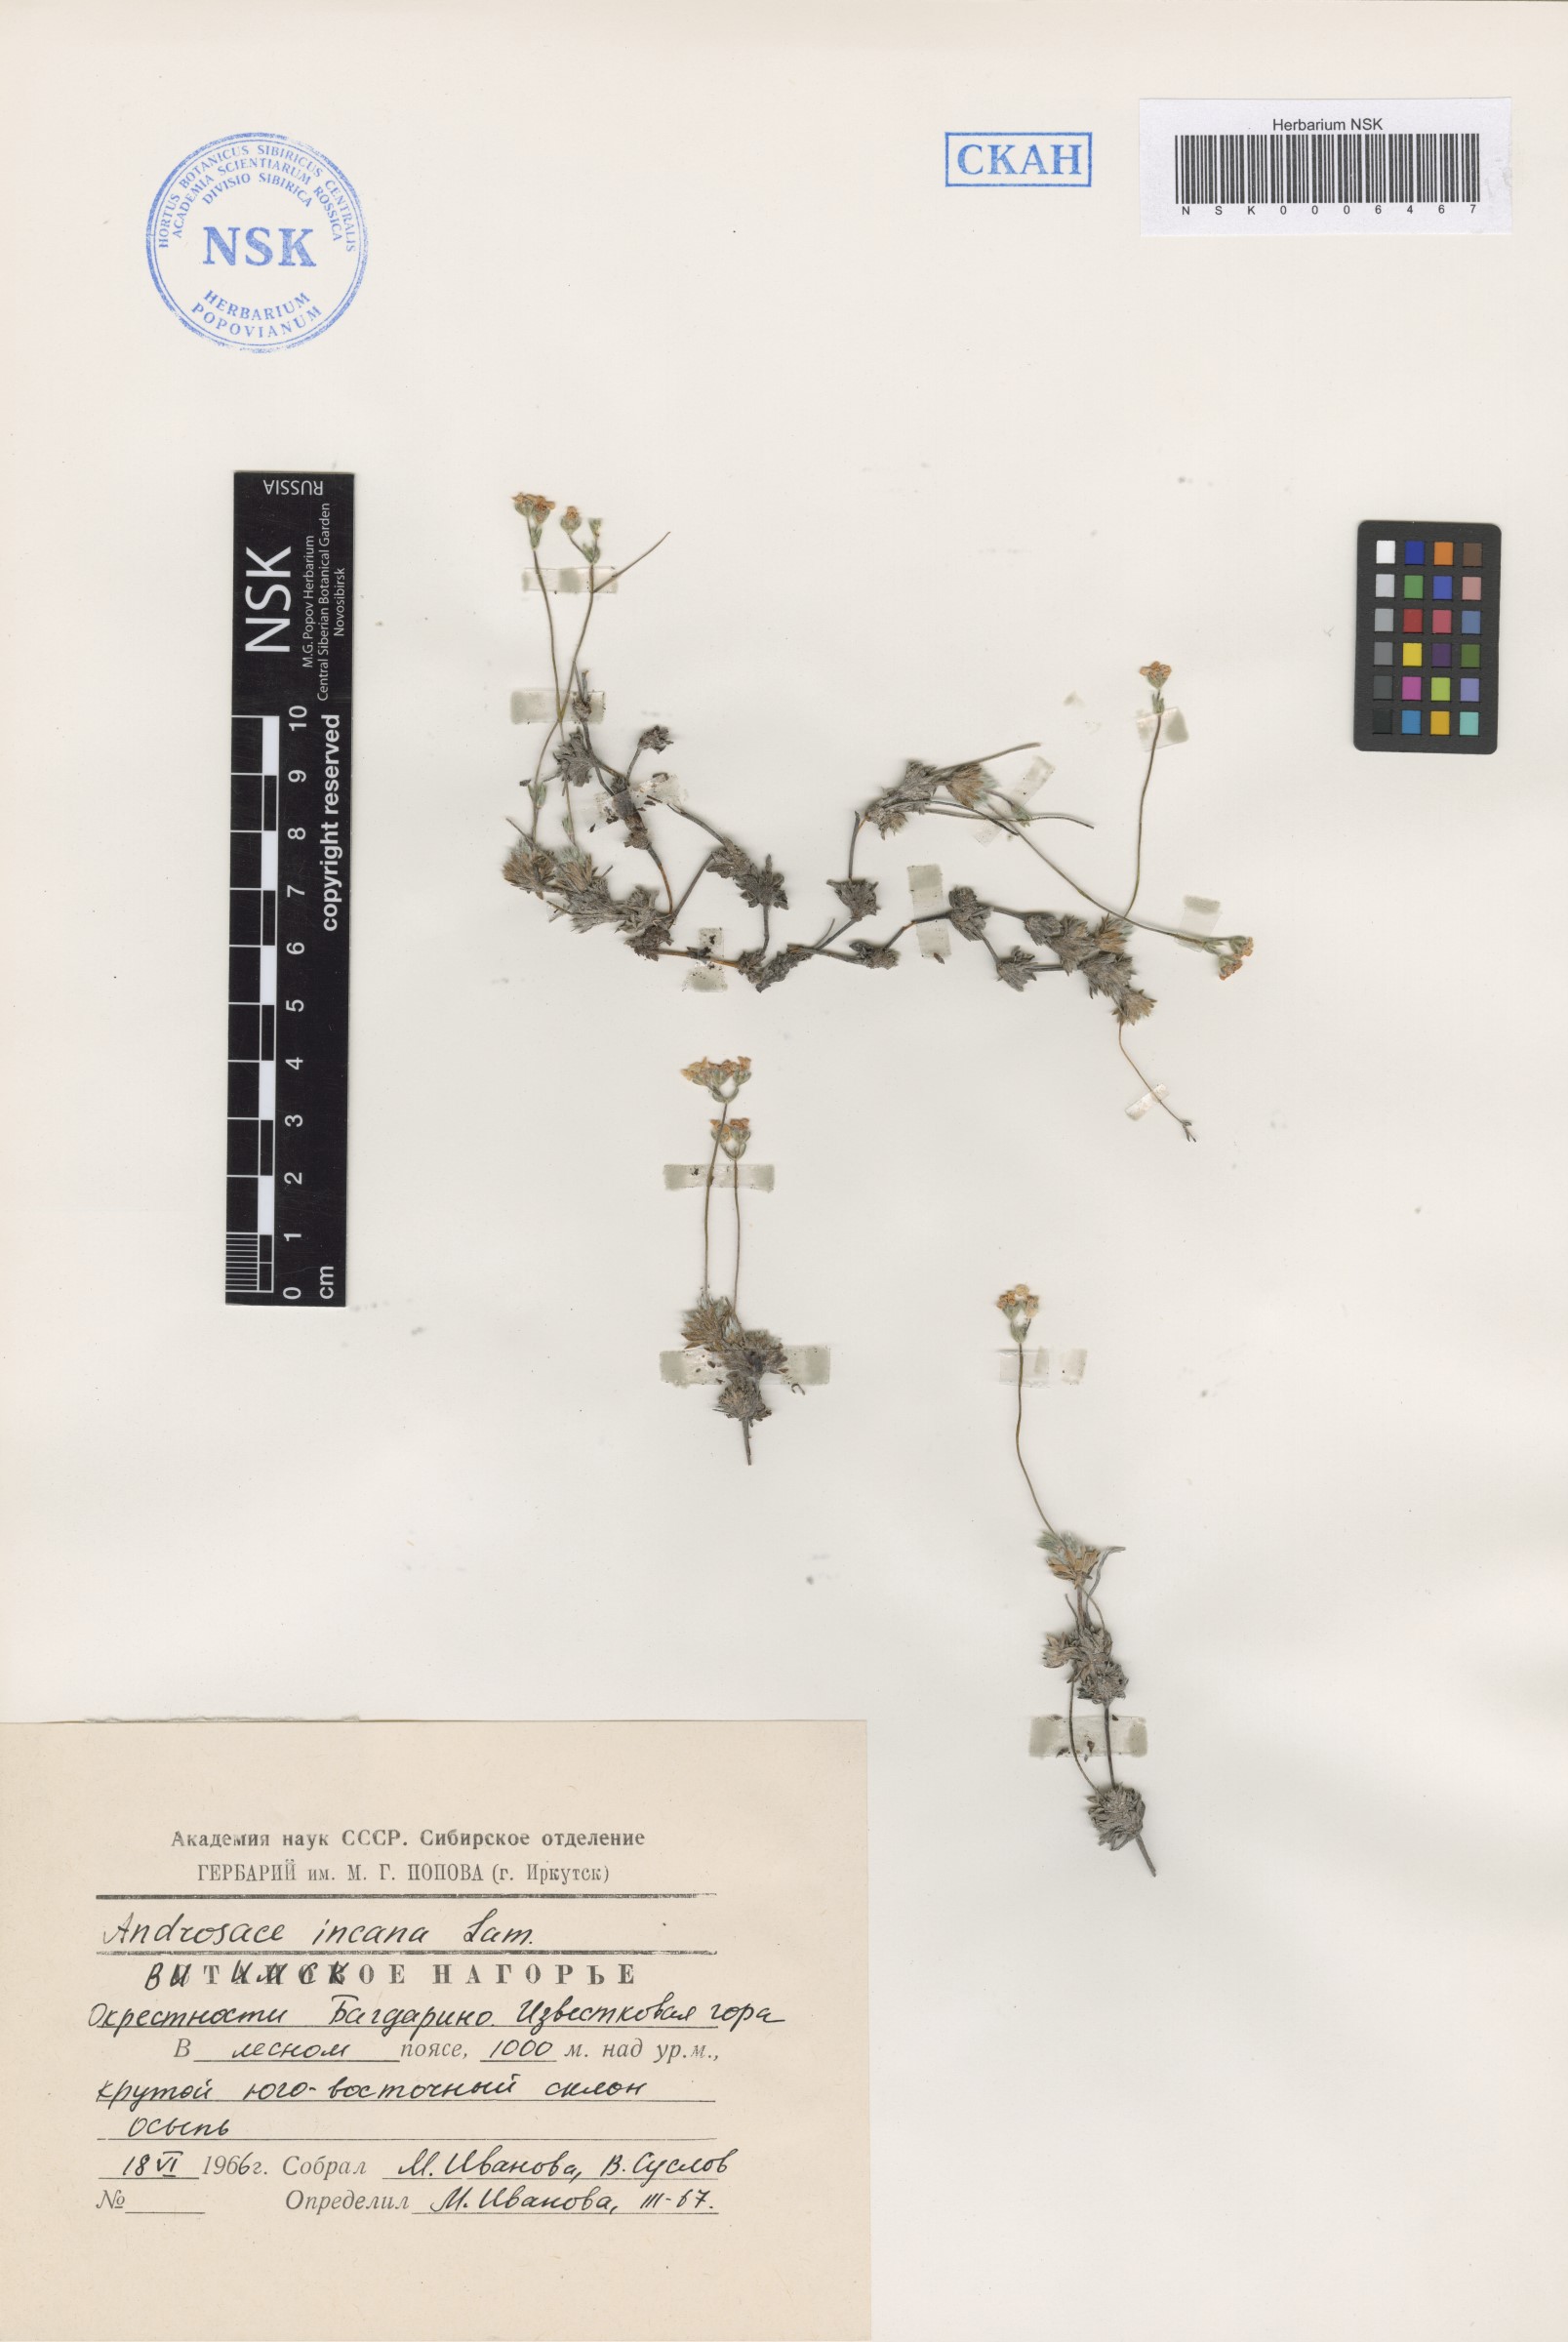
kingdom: Plantae
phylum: Tracheophyta
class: Magnoliopsida
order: Ericales
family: Primulaceae
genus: Androsace
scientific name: Androsace incana
